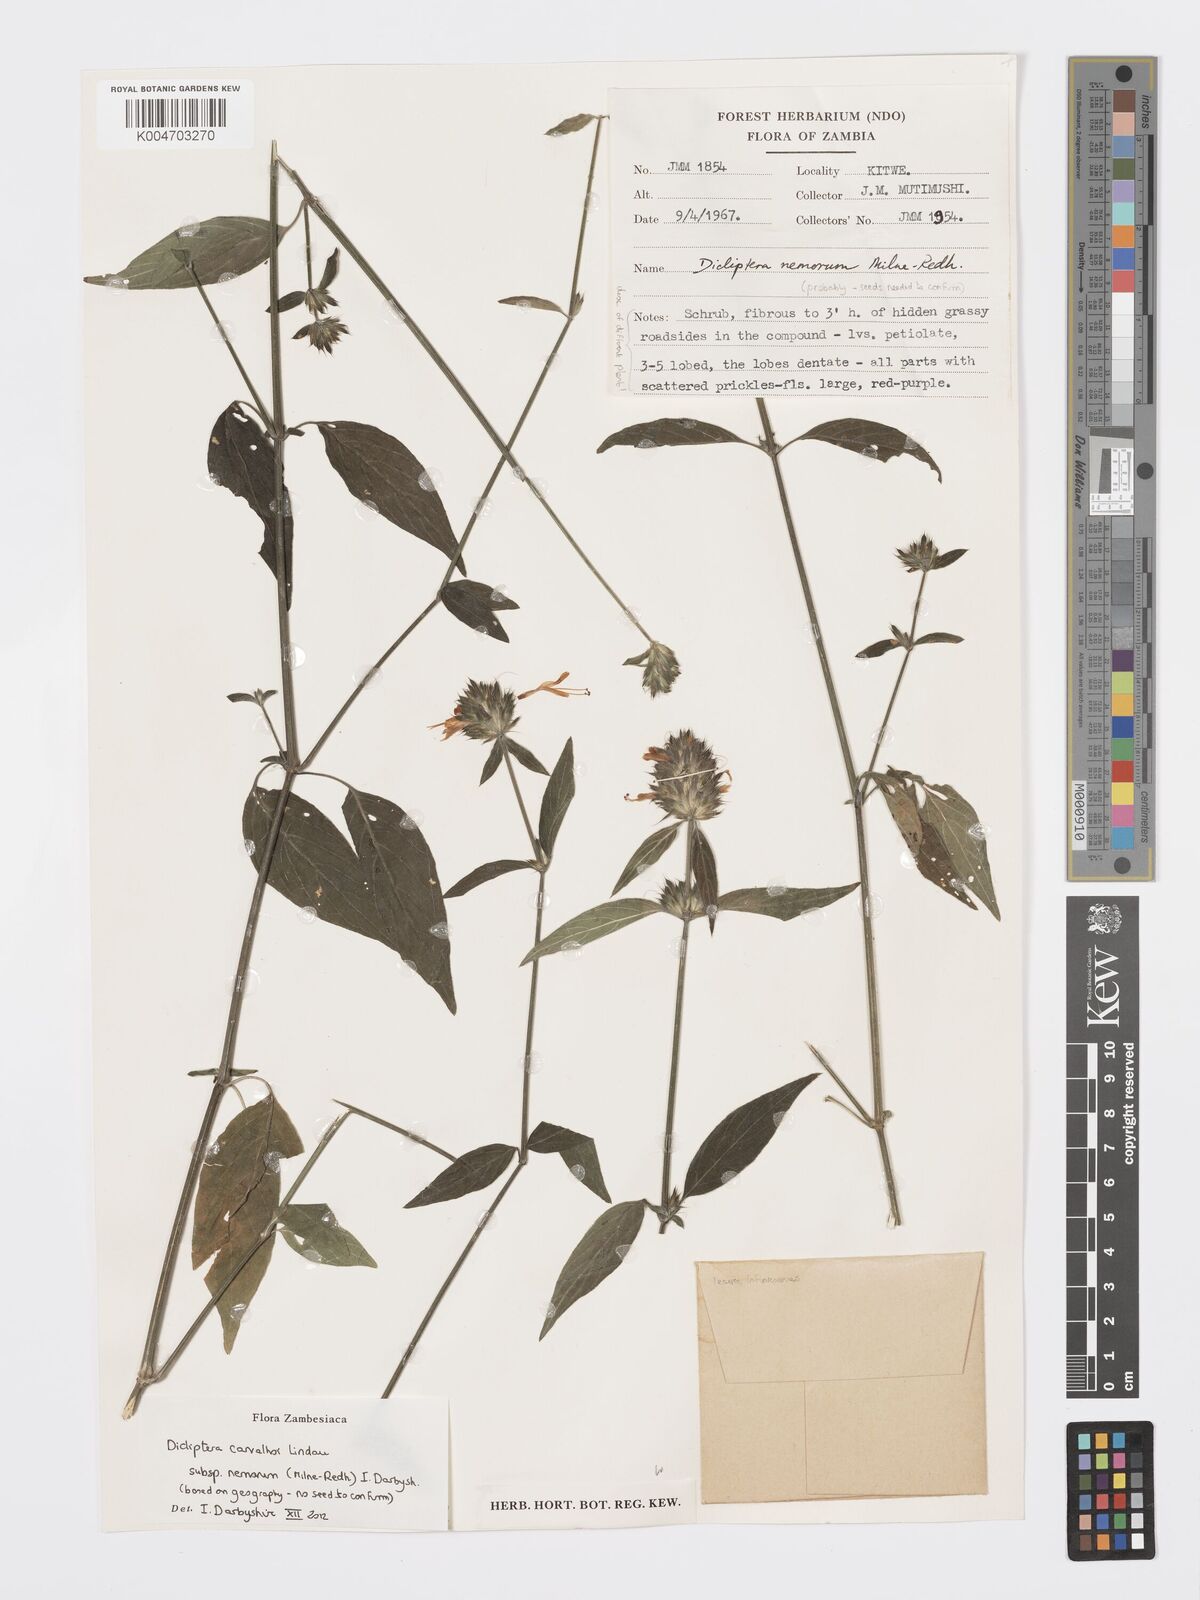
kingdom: Plantae
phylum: Tracheophyta
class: Magnoliopsida
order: Lamiales
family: Acanthaceae
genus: Dicliptera
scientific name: Dicliptera carvalhoi
